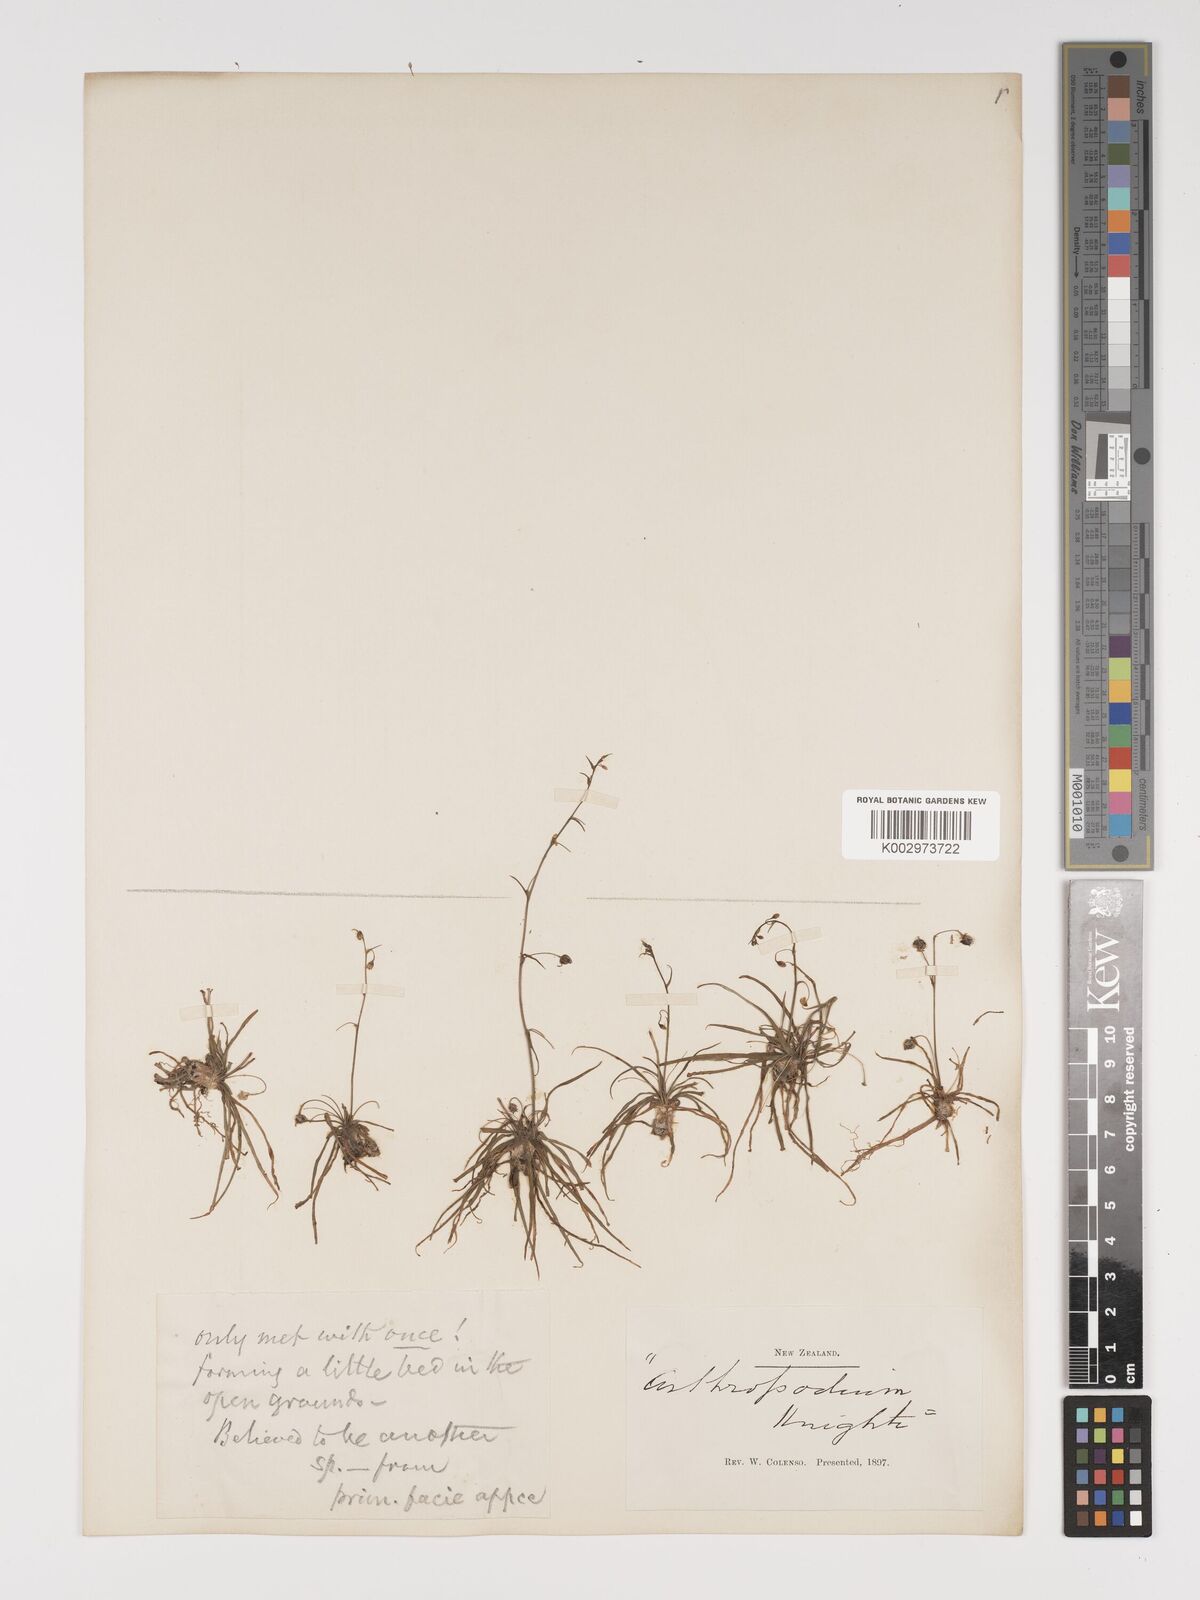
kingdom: Plantae
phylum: Tracheophyta
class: Liliopsida
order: Asparagales
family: Asparagaceae
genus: Arthropodium
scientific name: Arthropodium candidum
